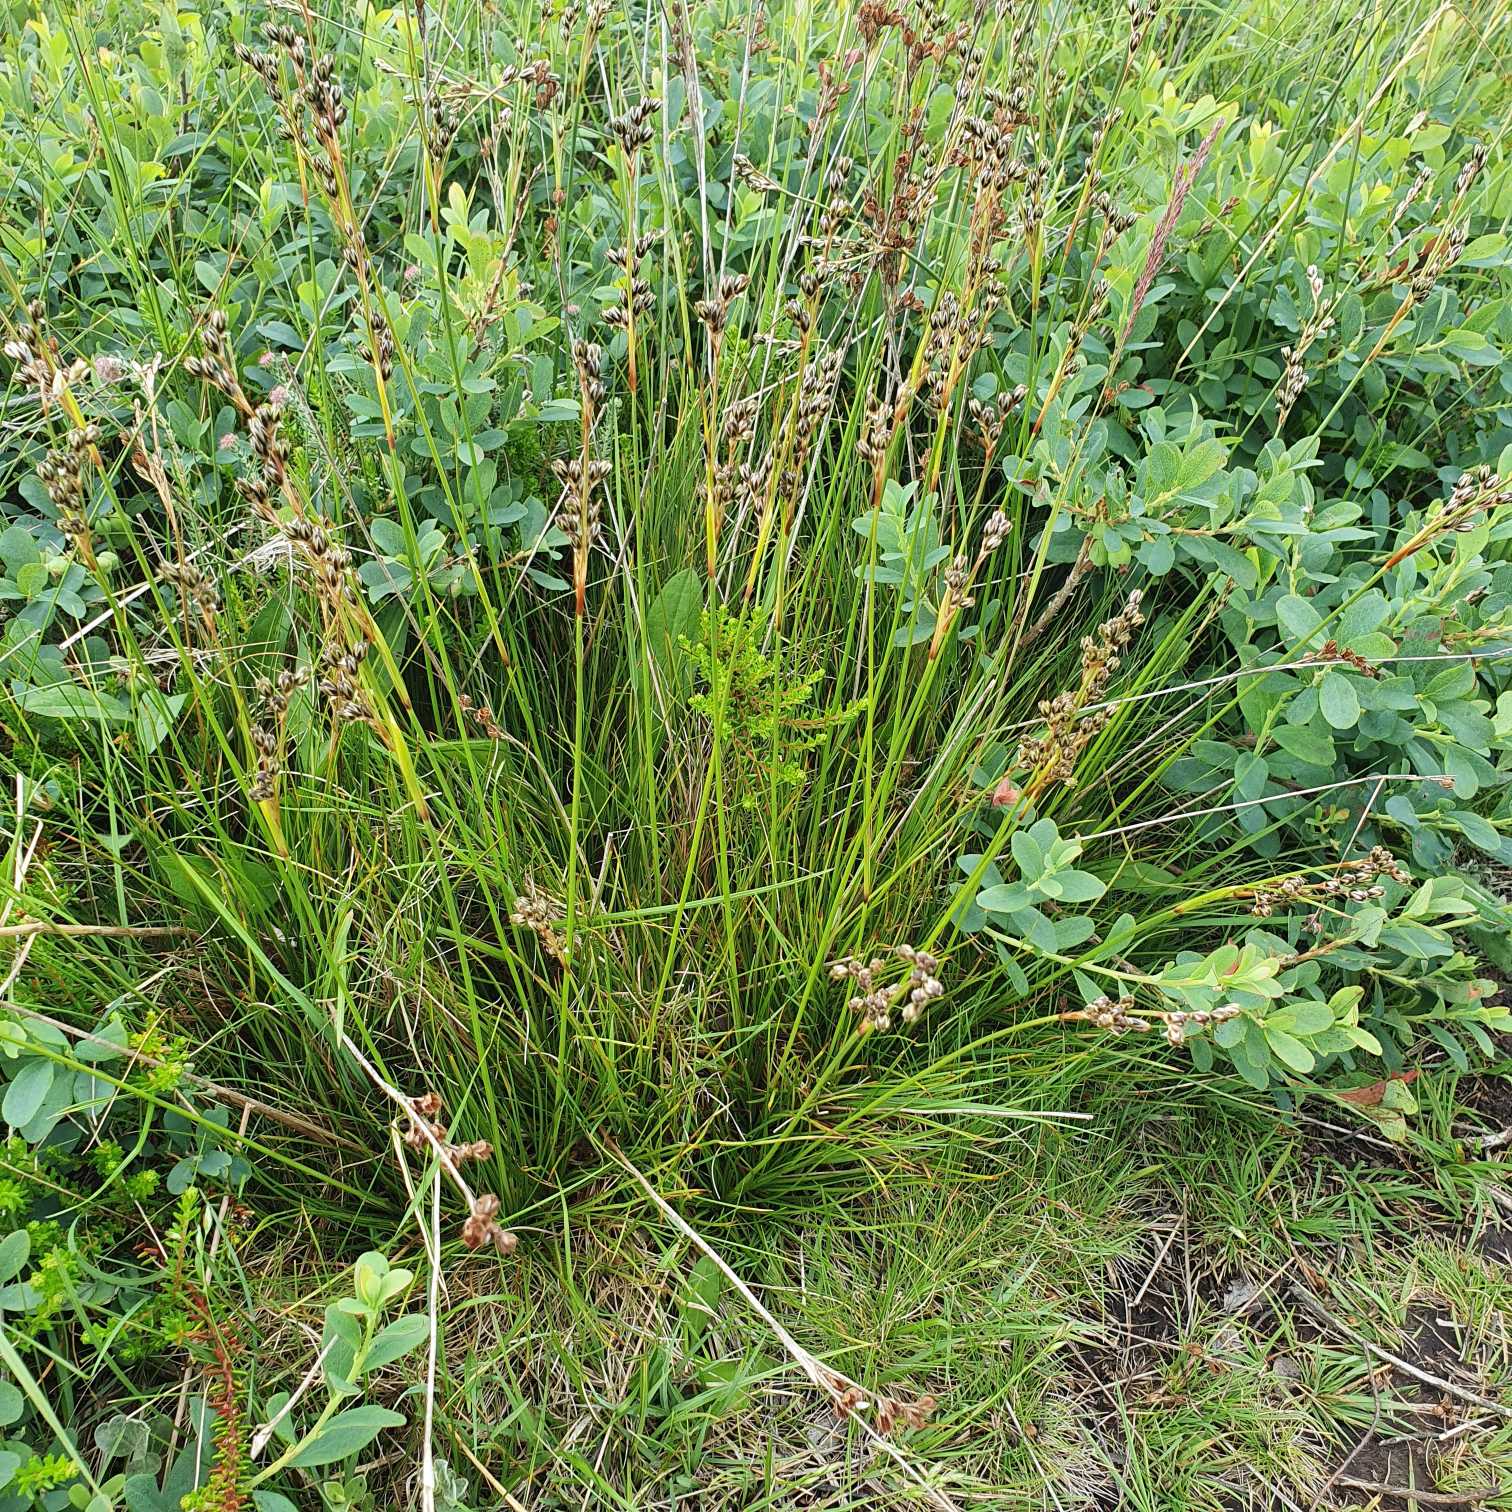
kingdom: Plantae
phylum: Tracheophyta
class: Liliopsida
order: Poales
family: Juncaceae
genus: Juncus
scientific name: Juncus squarrosus
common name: Børste-siv
